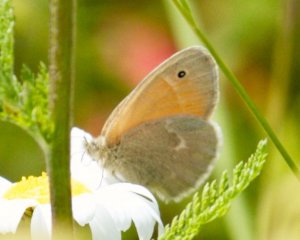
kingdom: Animalia
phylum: Arthropoda
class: Insecta
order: Lepidoptera
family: Nymphalidae
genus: Coenonympha
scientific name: Coenonympha tullia
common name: Large Heath
